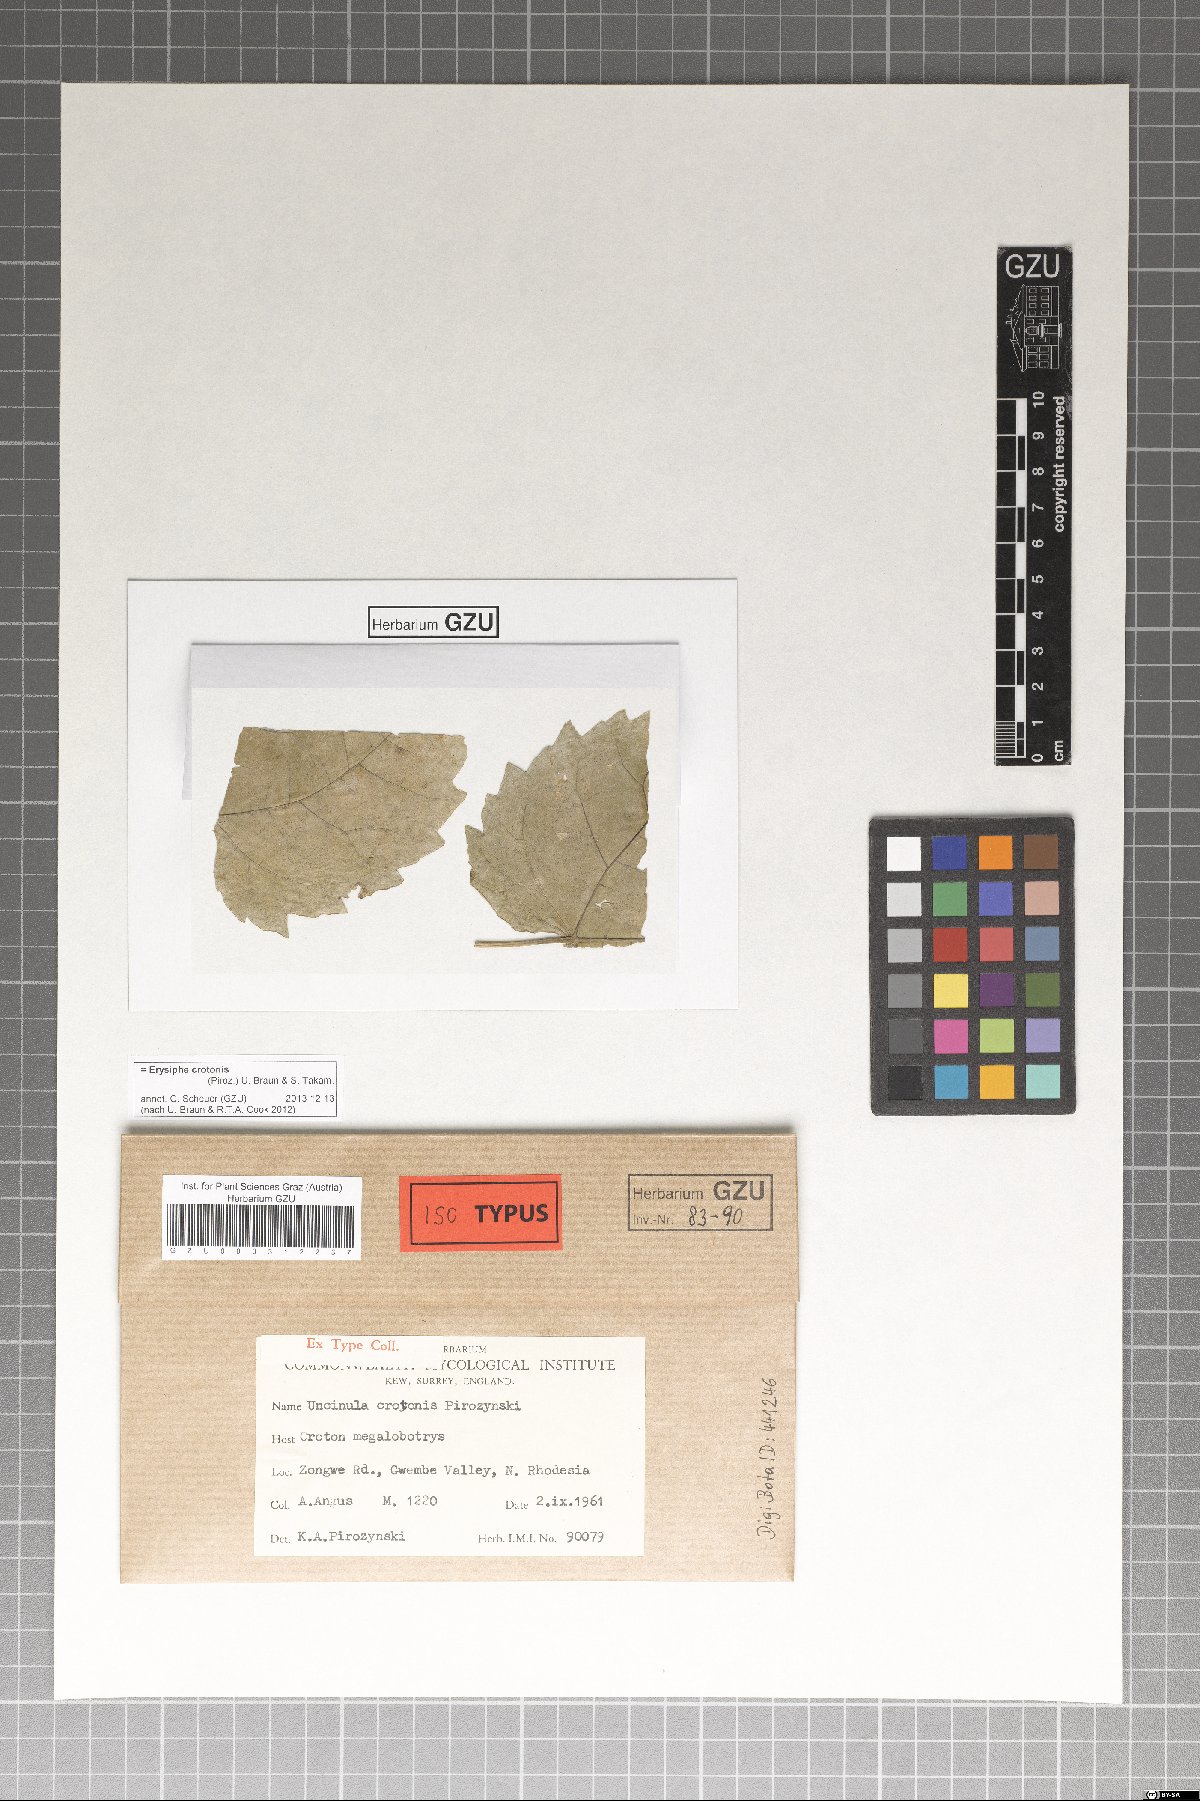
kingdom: Fungi
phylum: Ascomycota
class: Leotiomycetes
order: Helotiales
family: Erysiphaceae
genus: Erysiphe
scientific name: Erysiphe crotonis
